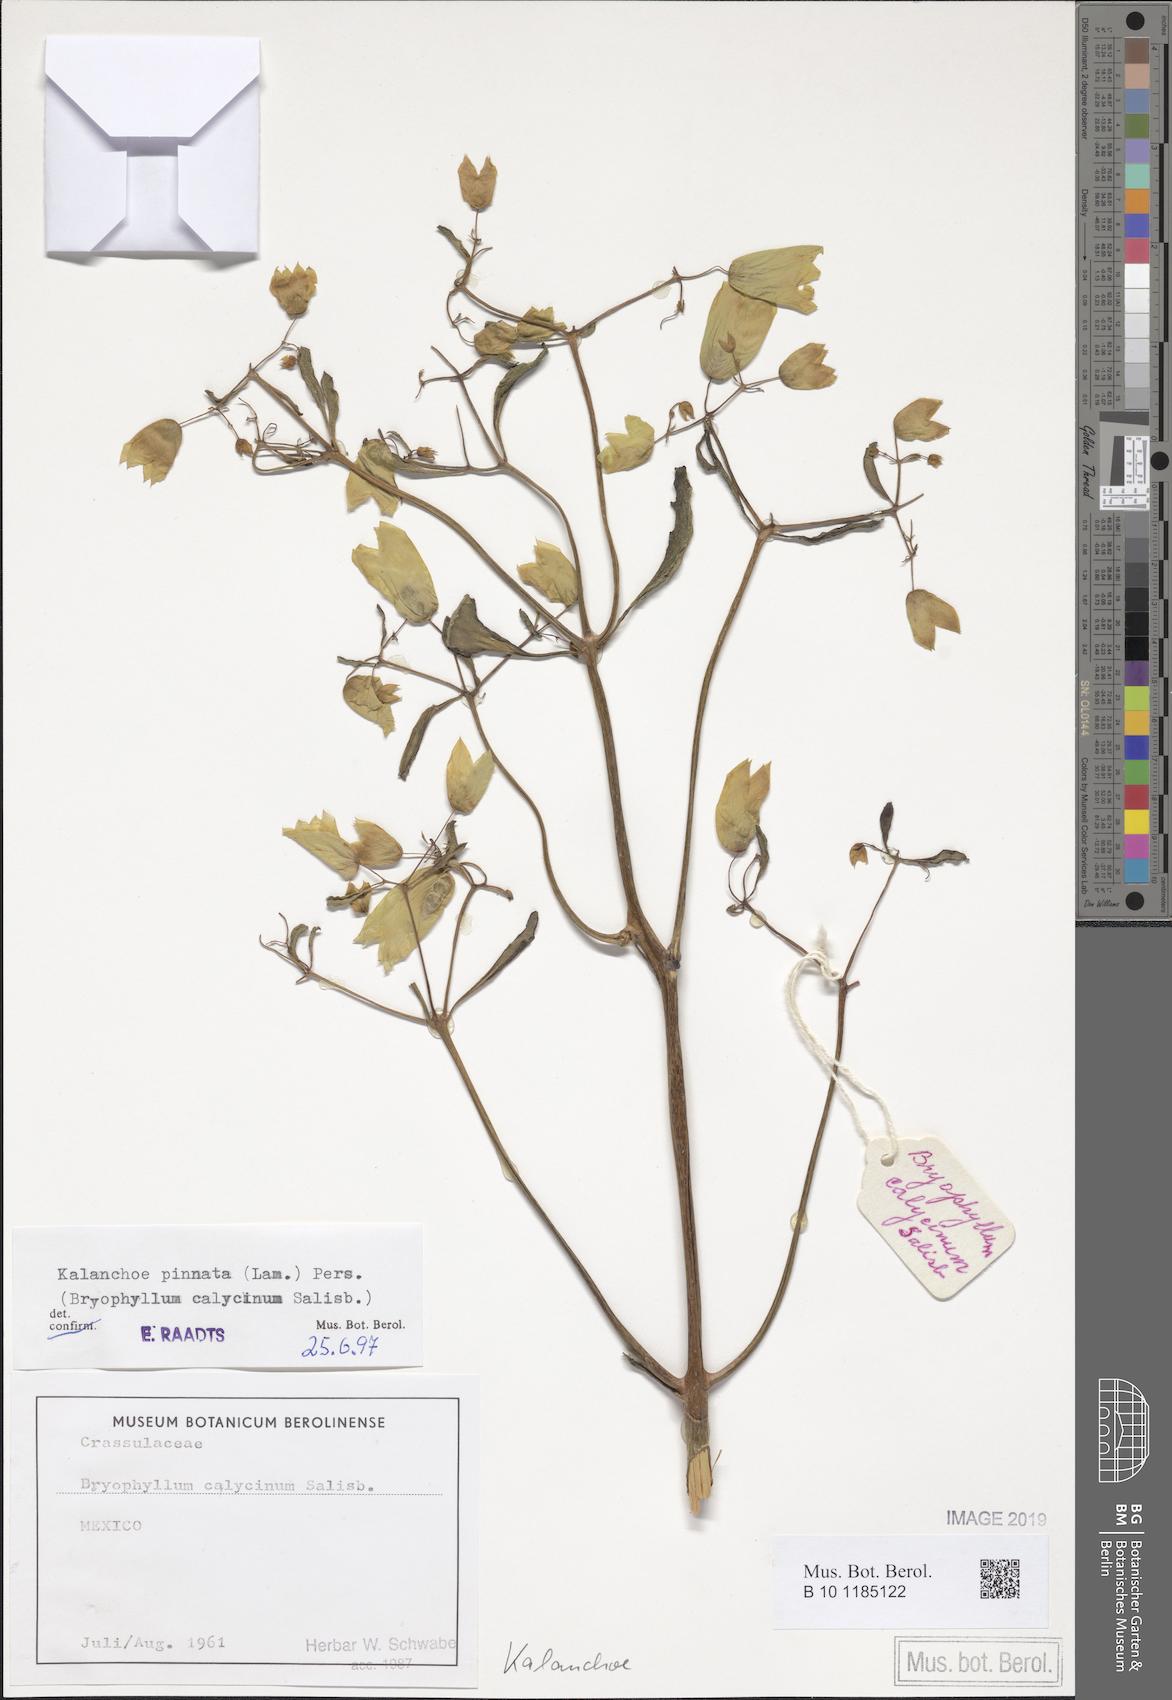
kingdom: Plantae
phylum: Tracheophyta
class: Magnoliopsida
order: Saxifragales
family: Crassulaceae
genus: Kalanchoe
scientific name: Kalanchoe pinnata
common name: Cathedral bells
